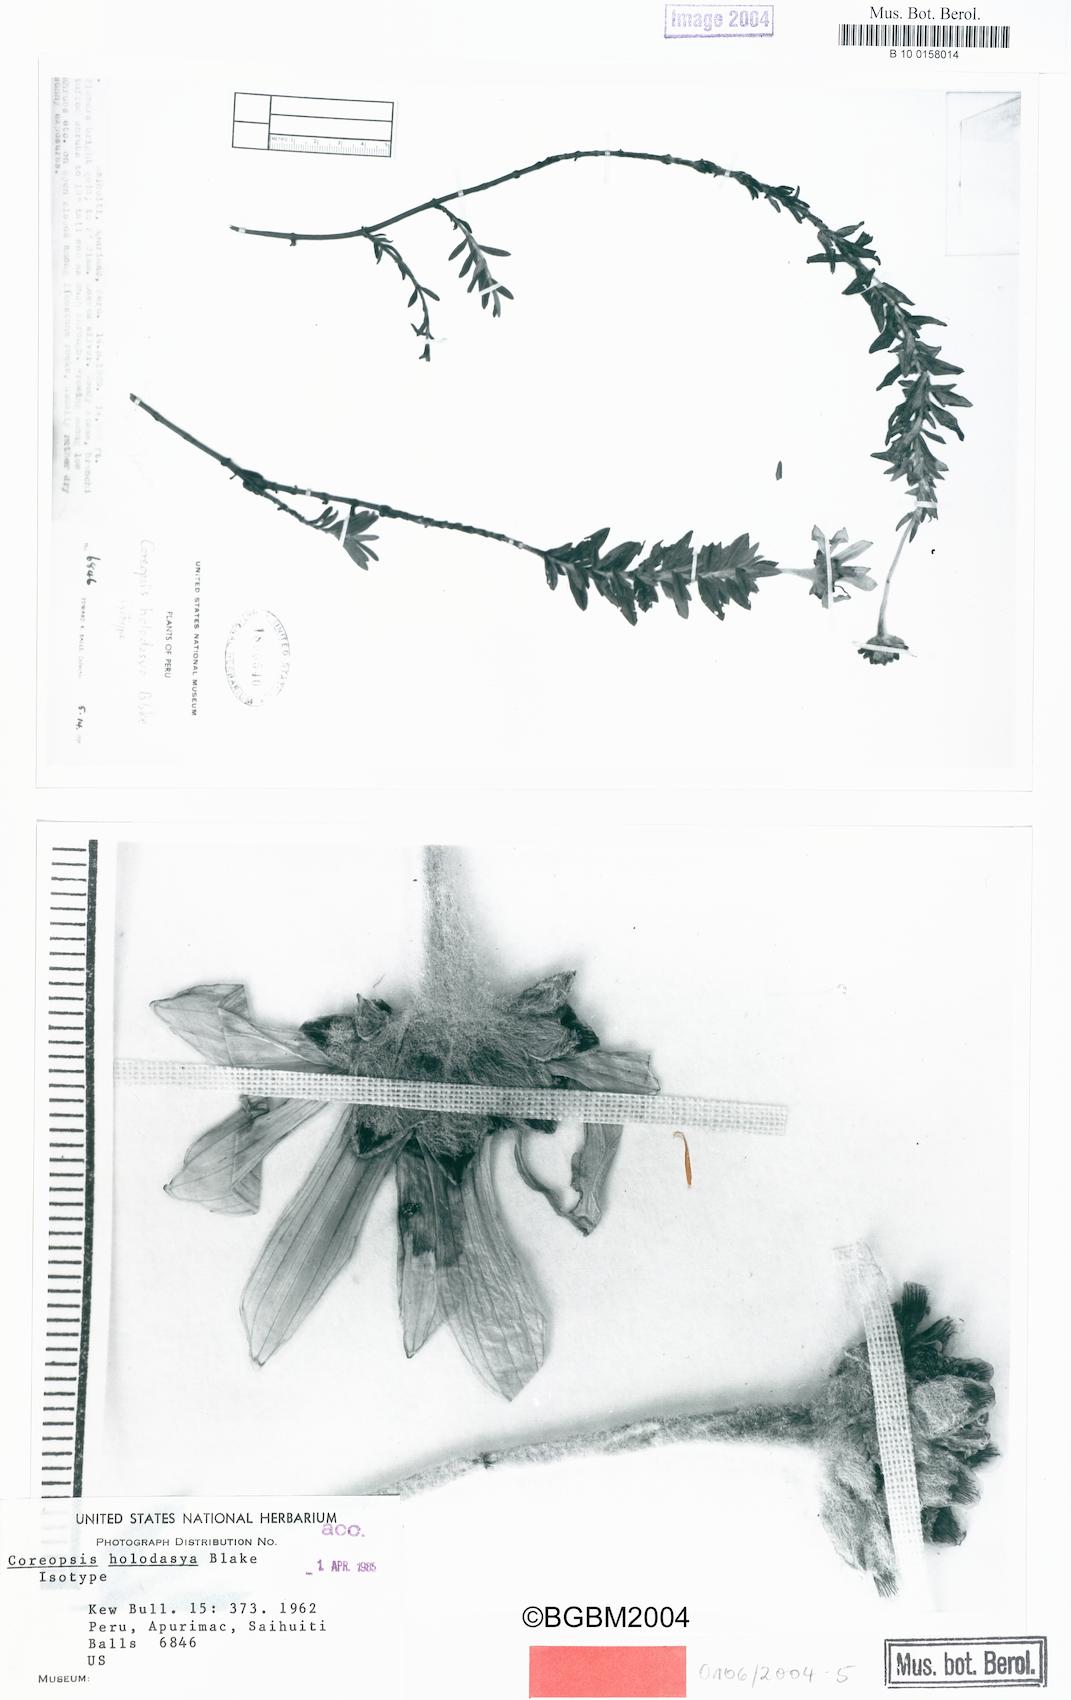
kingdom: Plantae
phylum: Tracheophyta
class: Magnoliopsida
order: Asterales
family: Asteraceae
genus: Coreopsis
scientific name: Coreopsis holodasya
